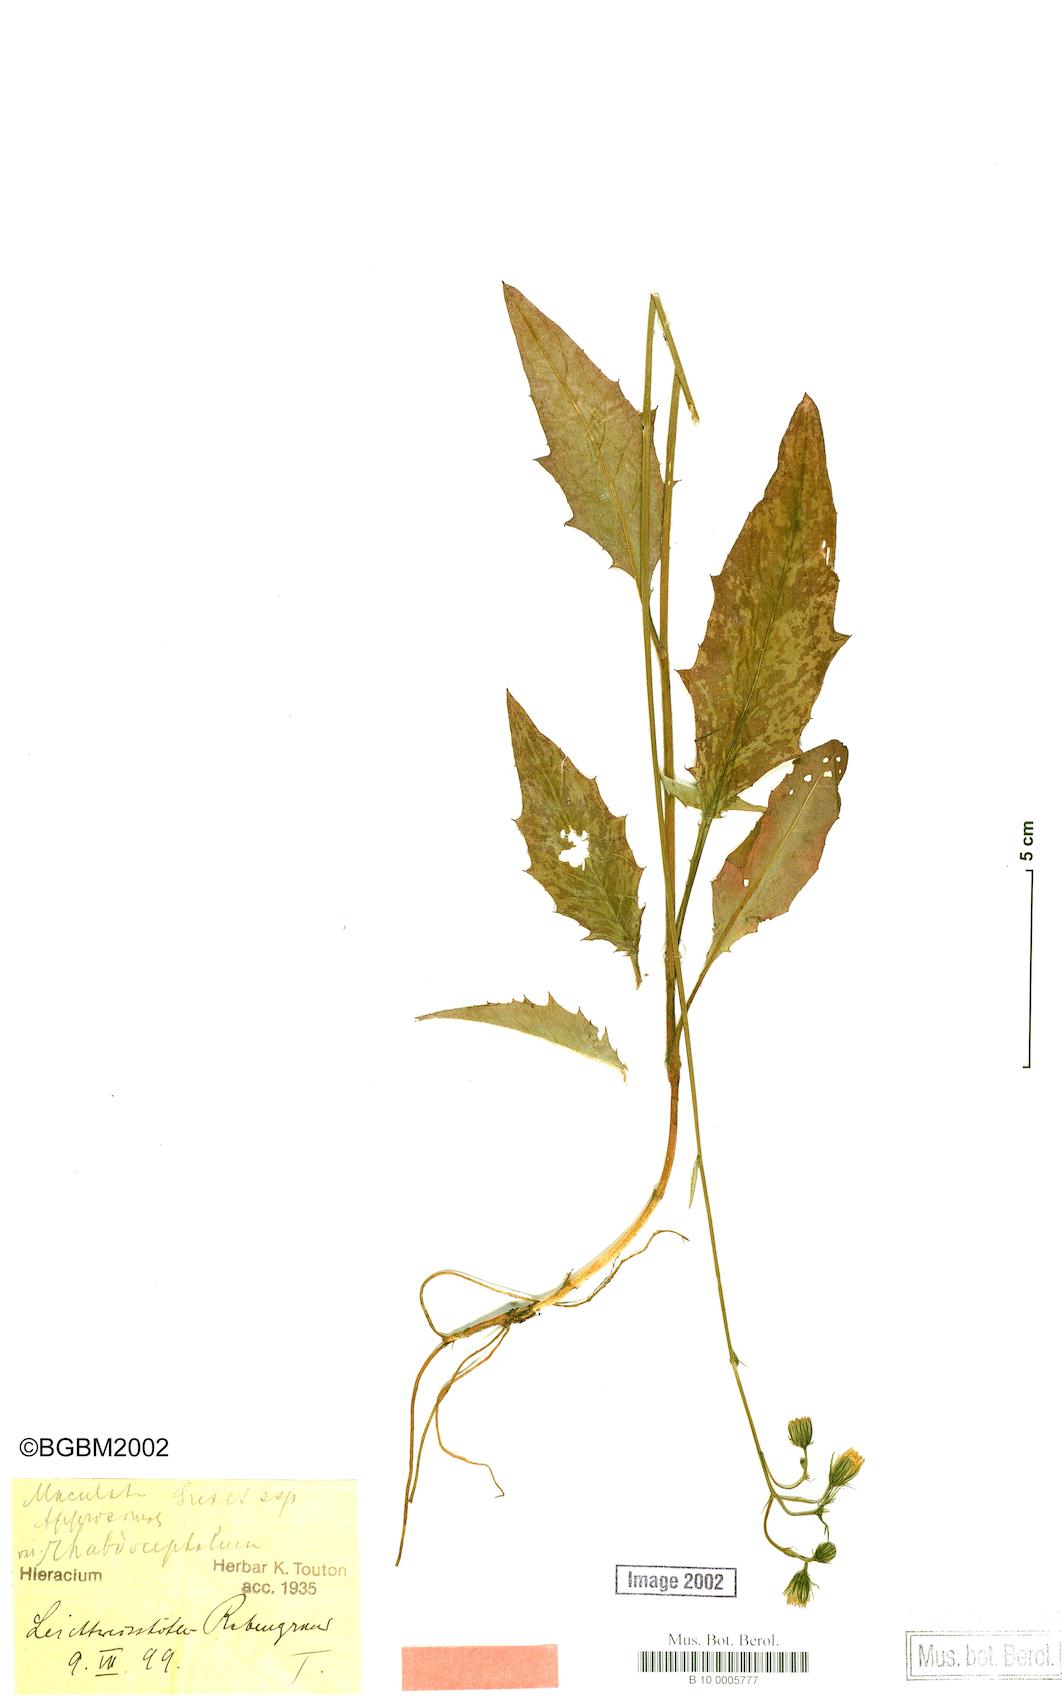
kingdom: Plantae
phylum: Tracheophyta
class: Magnoliopsida
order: Asterales
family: Asteraceae
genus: Hieracium
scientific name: Hieracium maculatum
